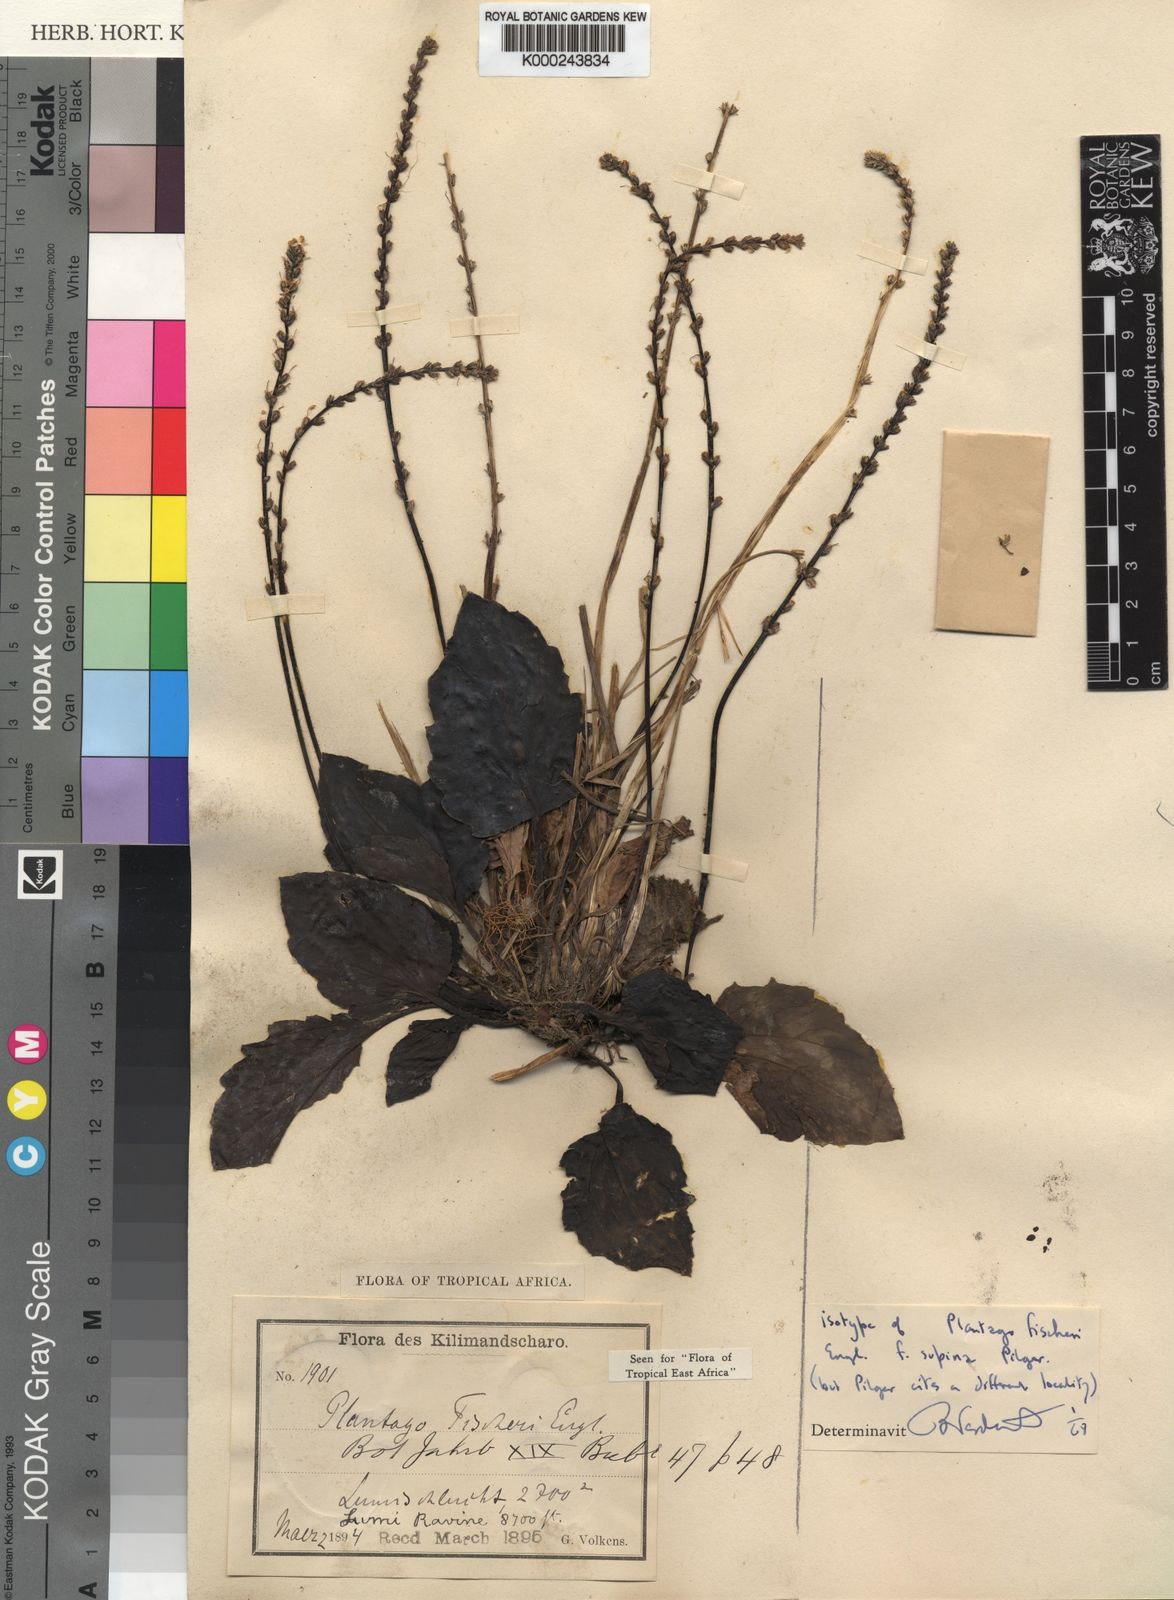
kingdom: Plantae
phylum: Tracheophyta
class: Magnoliopsida
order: Lamiales
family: Plantaginaceae
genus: Plantago
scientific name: Plantago fischeri
